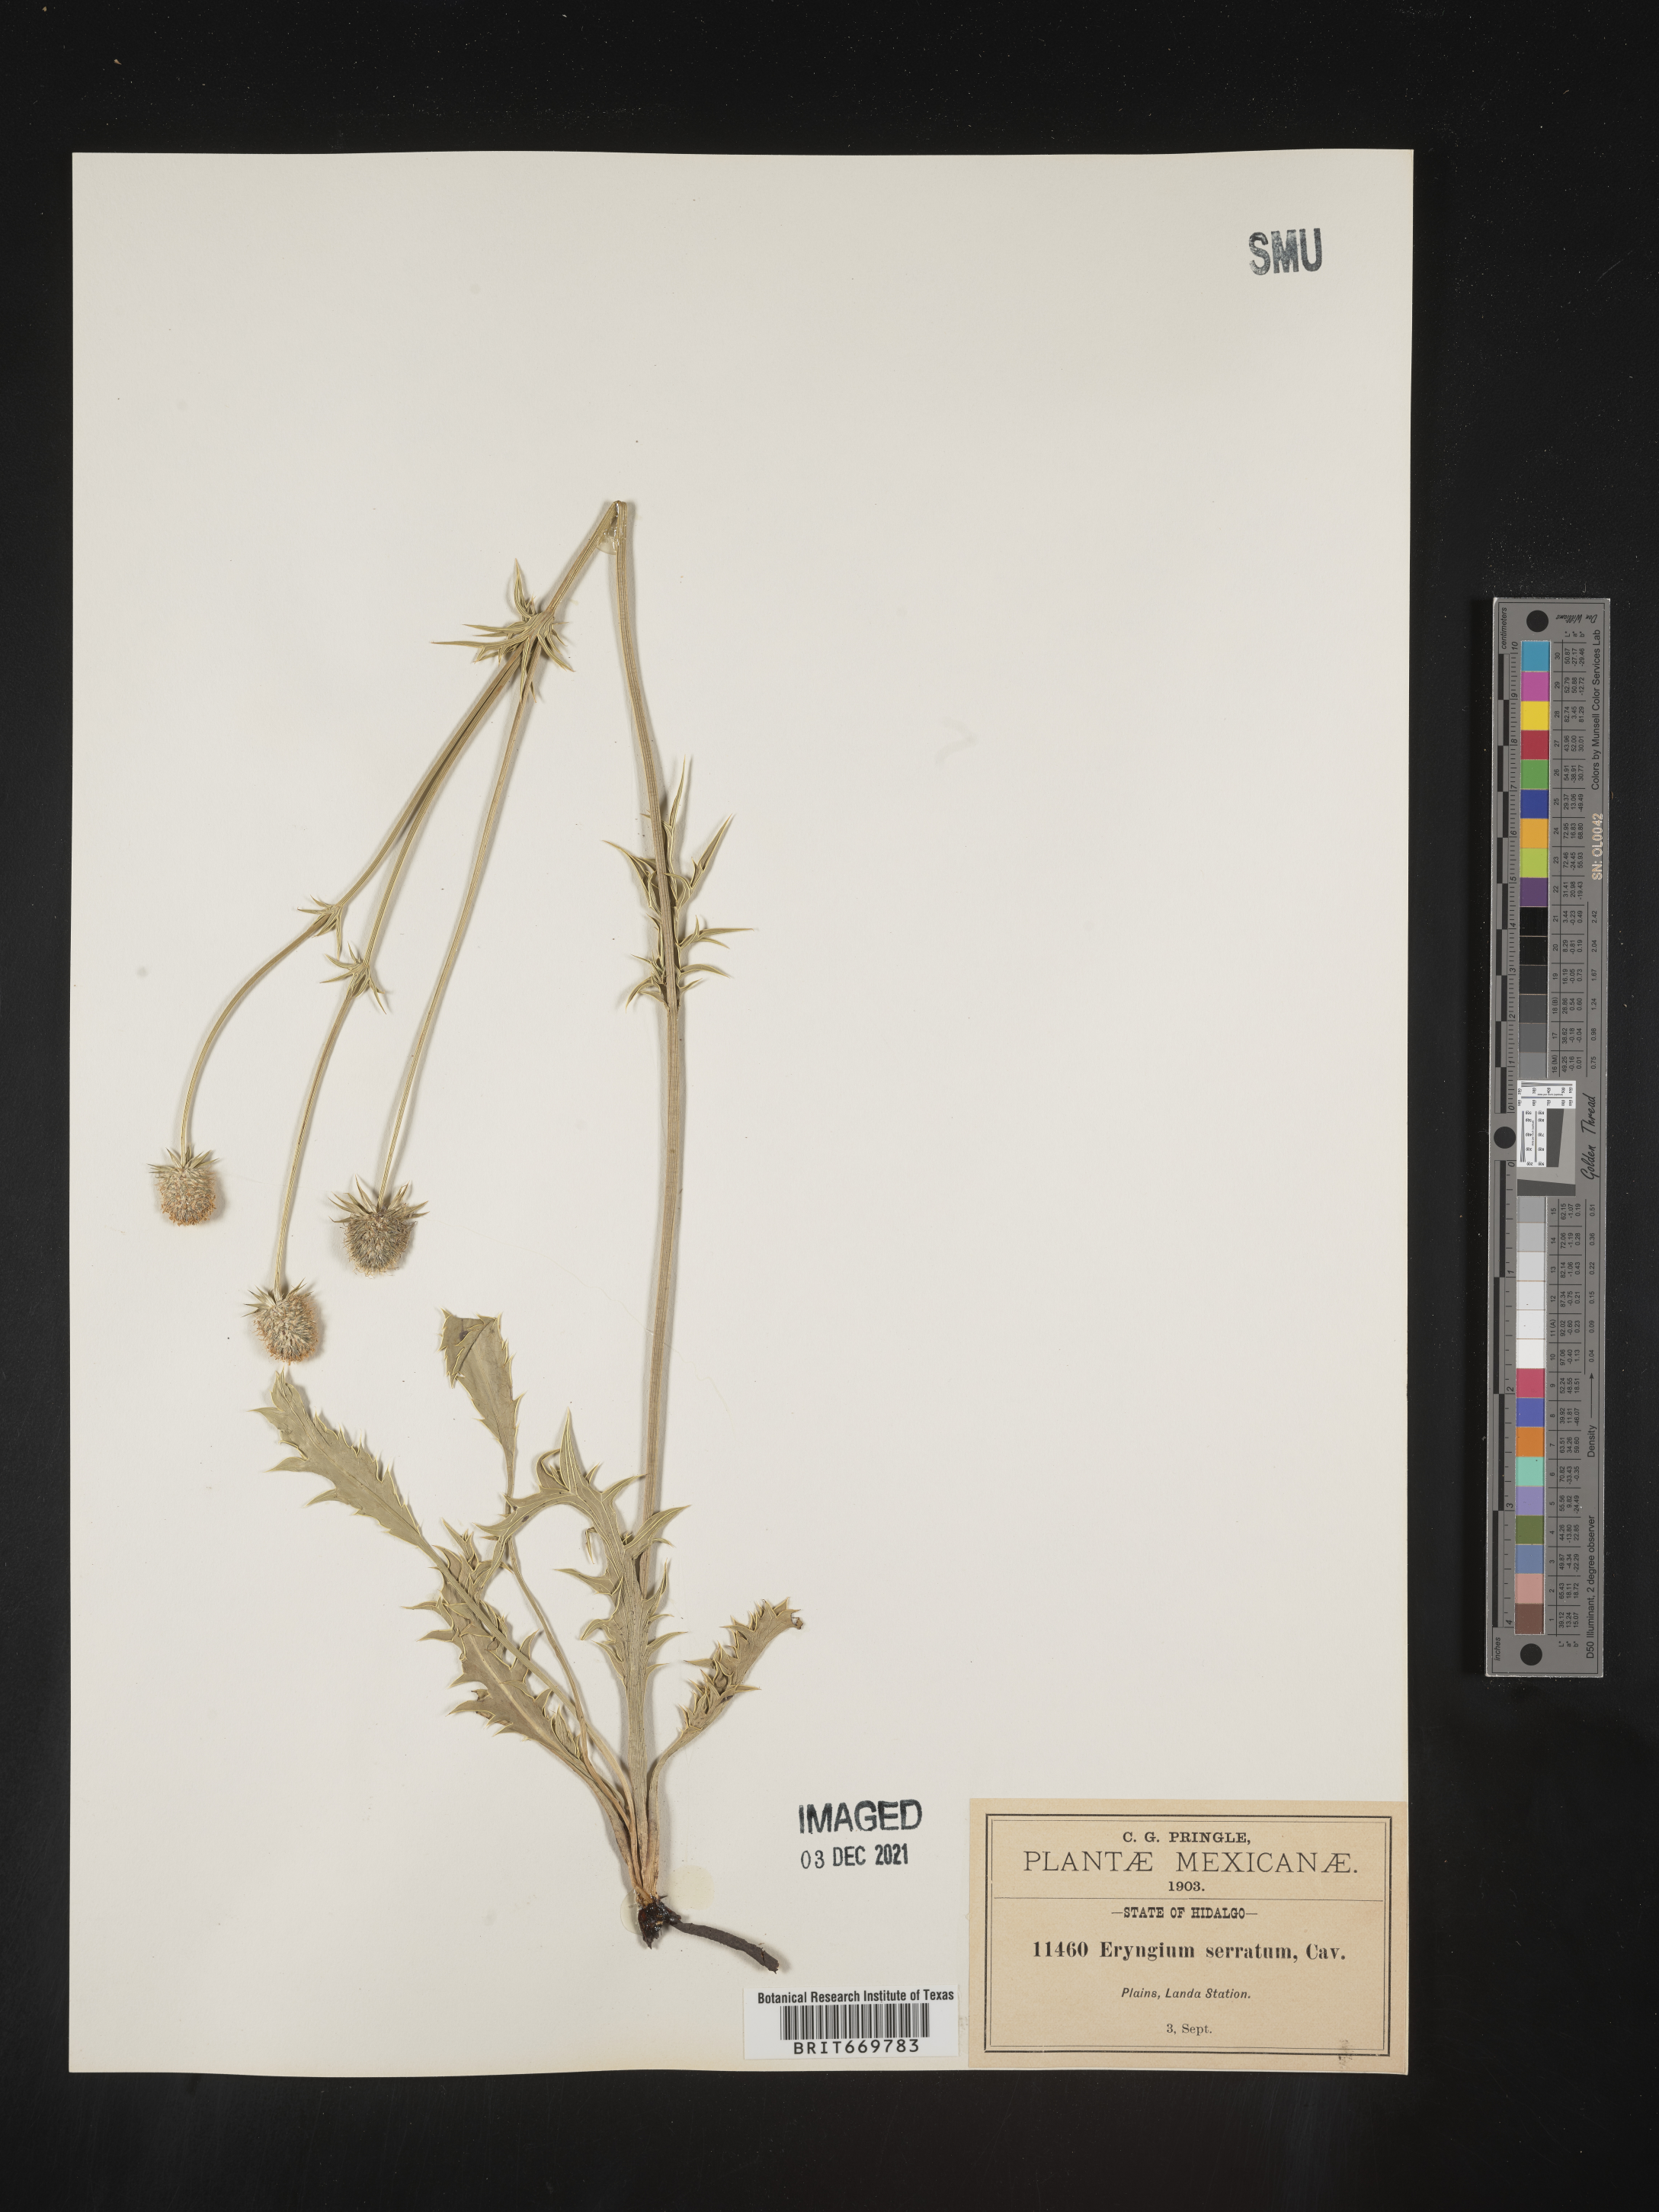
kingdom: Plantae
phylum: Tracheophyta
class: Magnoliopsida
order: Apiales
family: Apiaceae
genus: Eryngium
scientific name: Eryngium
